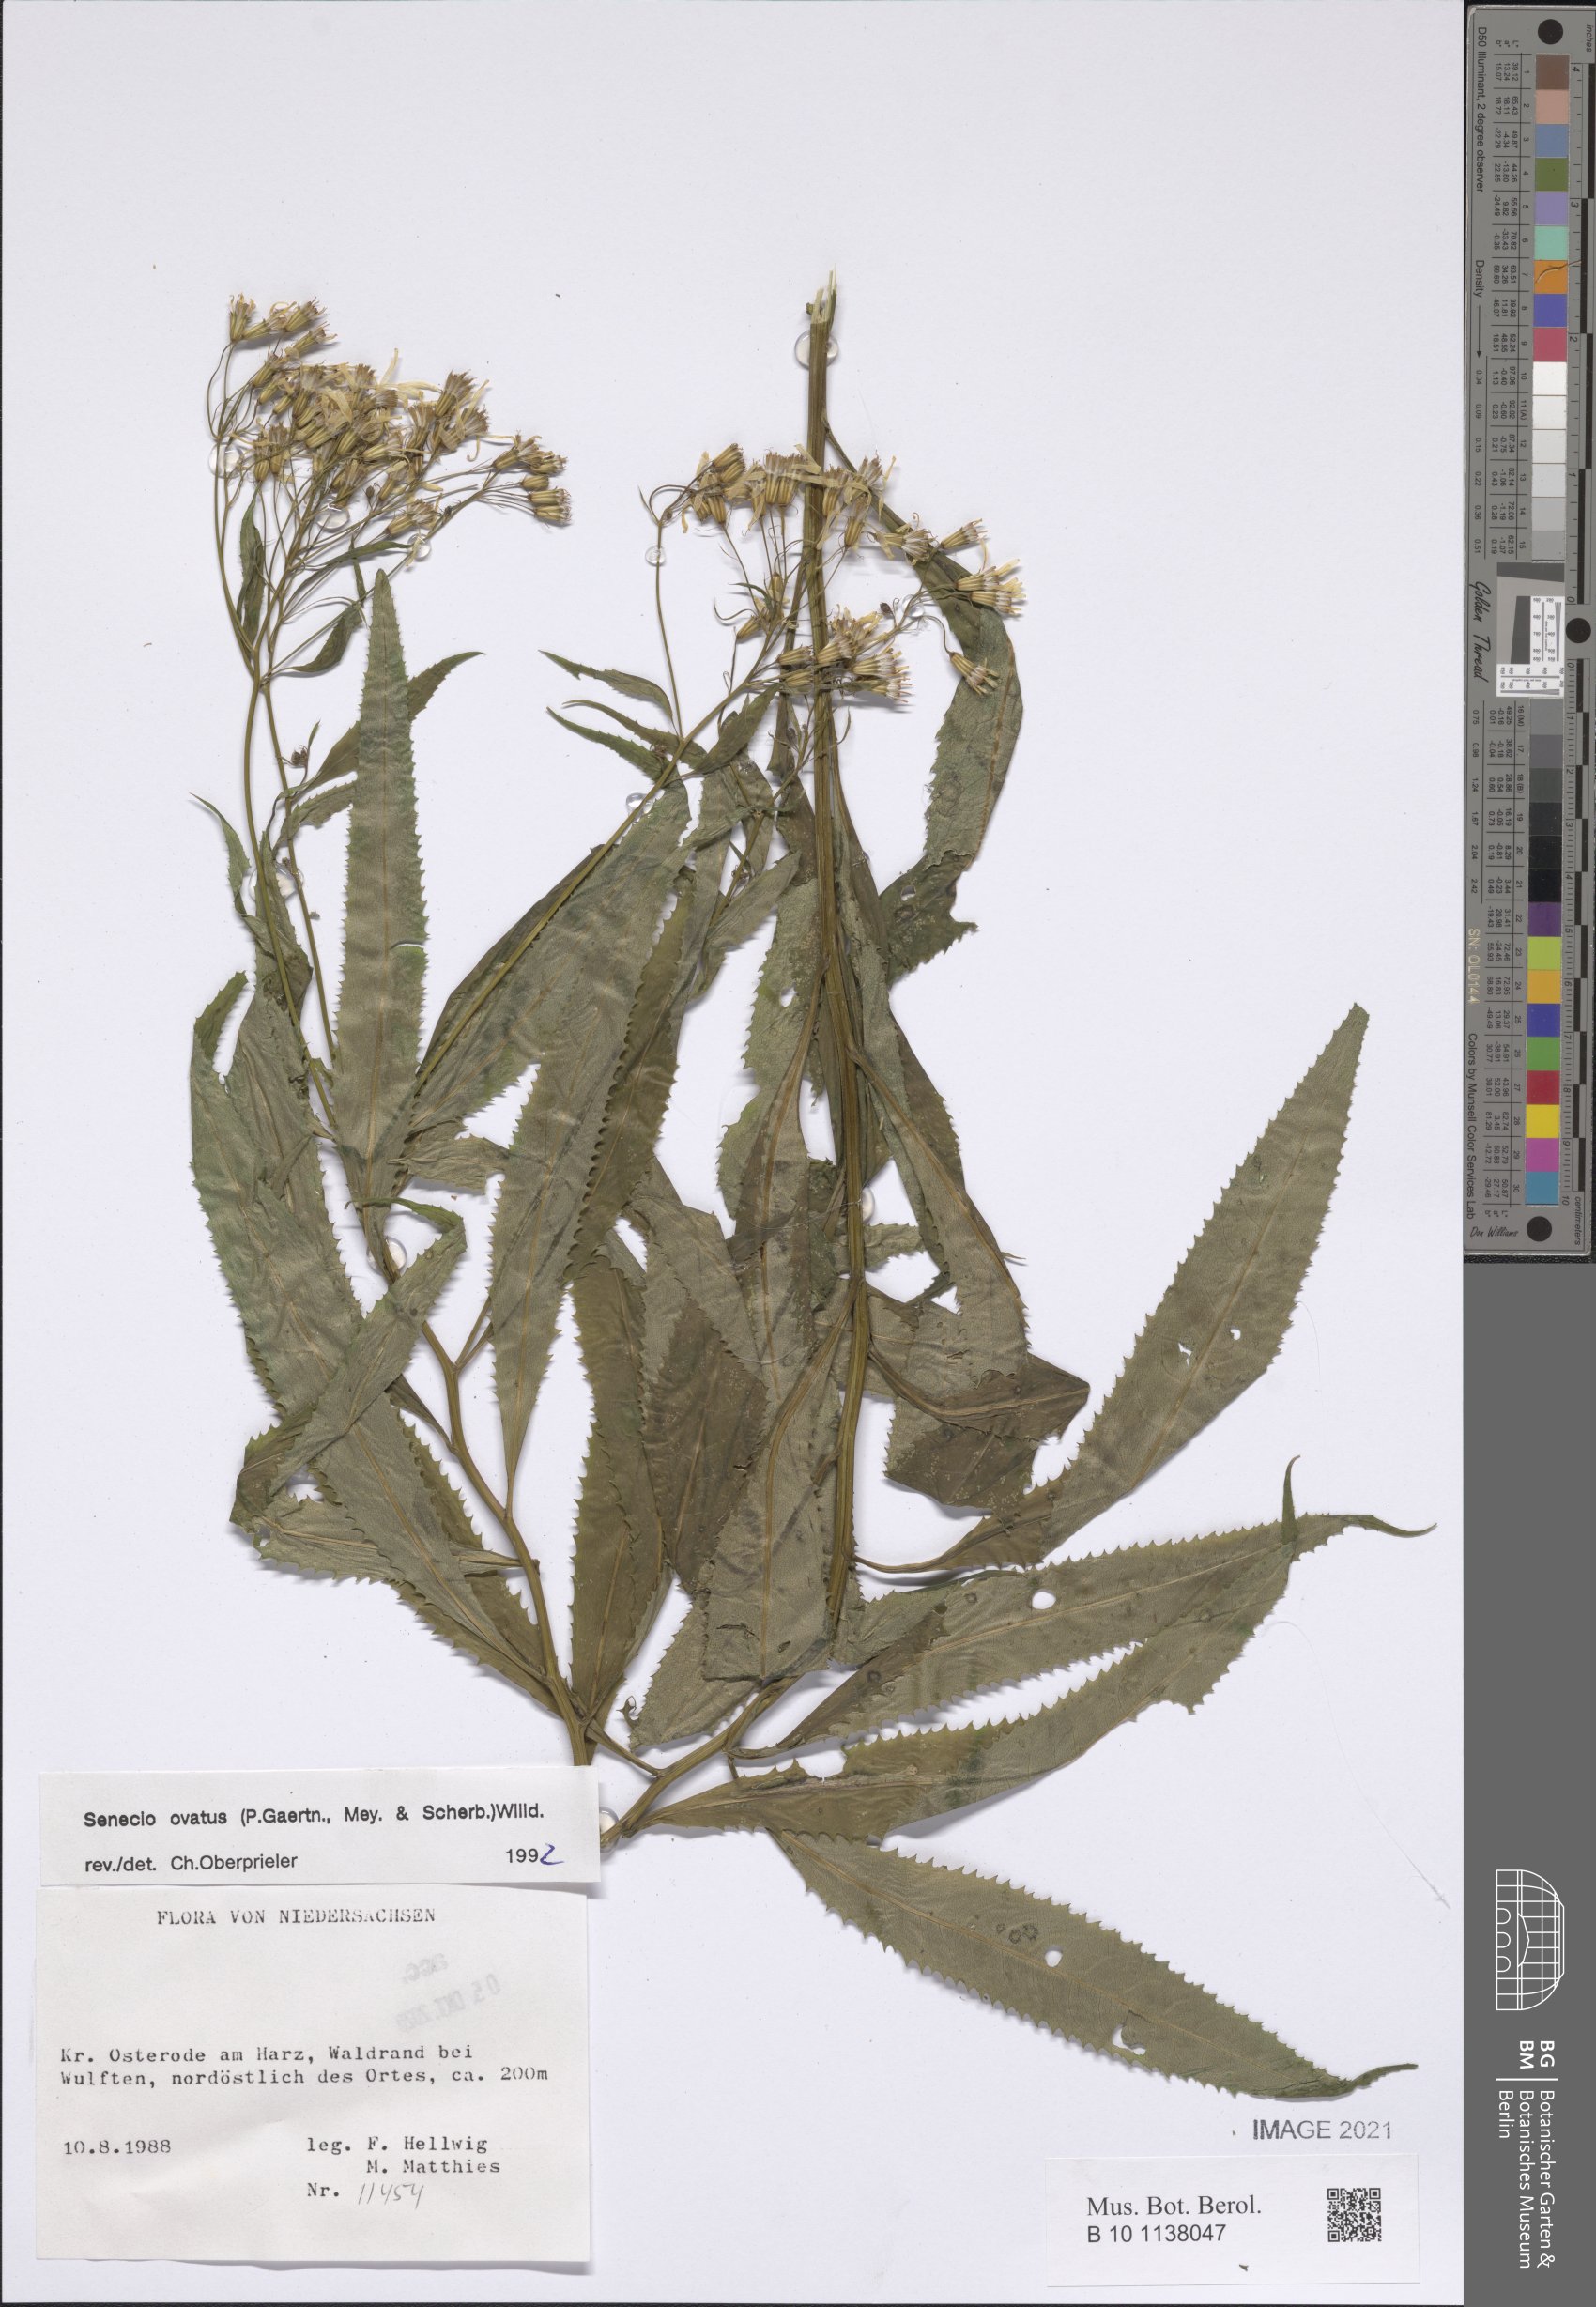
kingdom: Plantae
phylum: Tracheophyta
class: Magnoliopsida
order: Asterales
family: Asteraceae
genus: Senecio
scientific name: Senecio ovatus
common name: Wood ragwort
